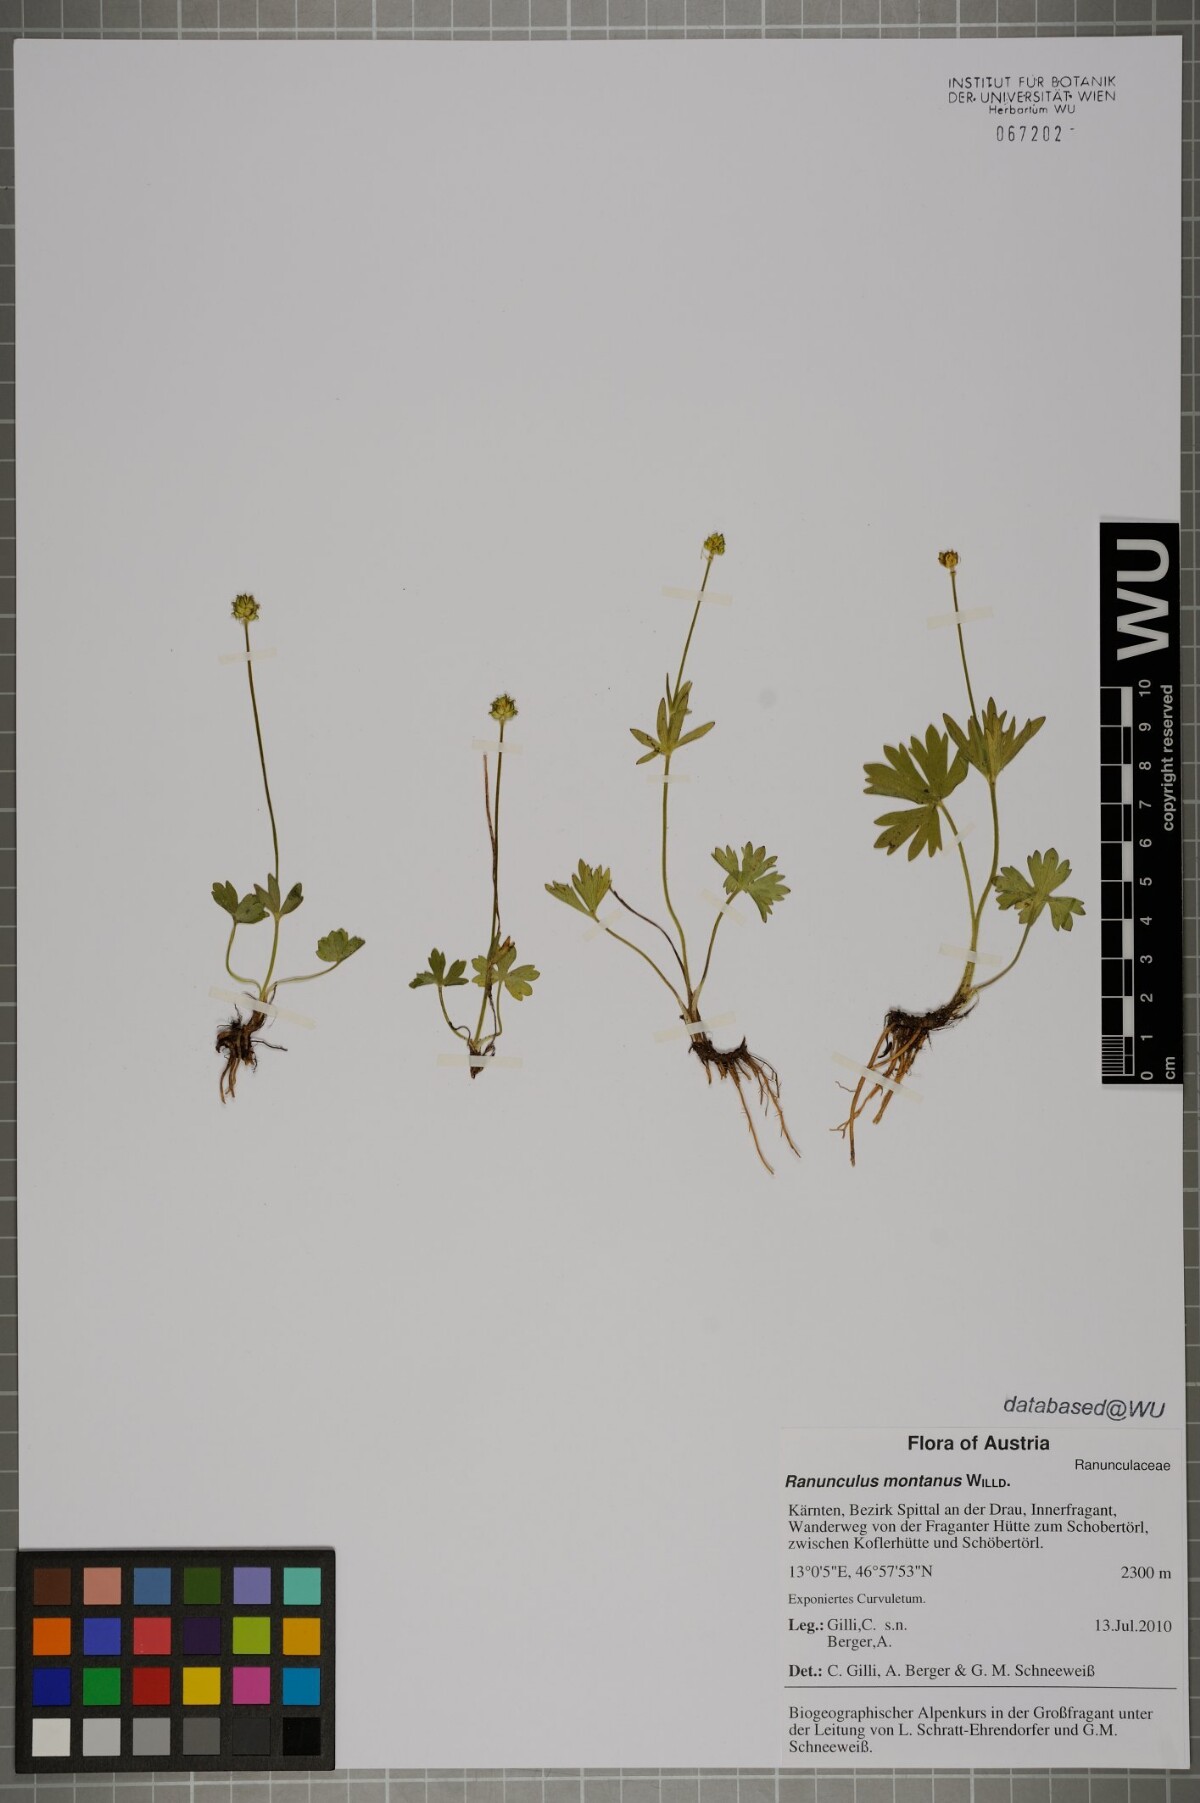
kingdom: Plantae
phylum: Tracheophyta
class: Magnoliopsida
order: Ranunculales
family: Ranunculaceae
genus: Ranunculus
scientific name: Ranunculus montanus
